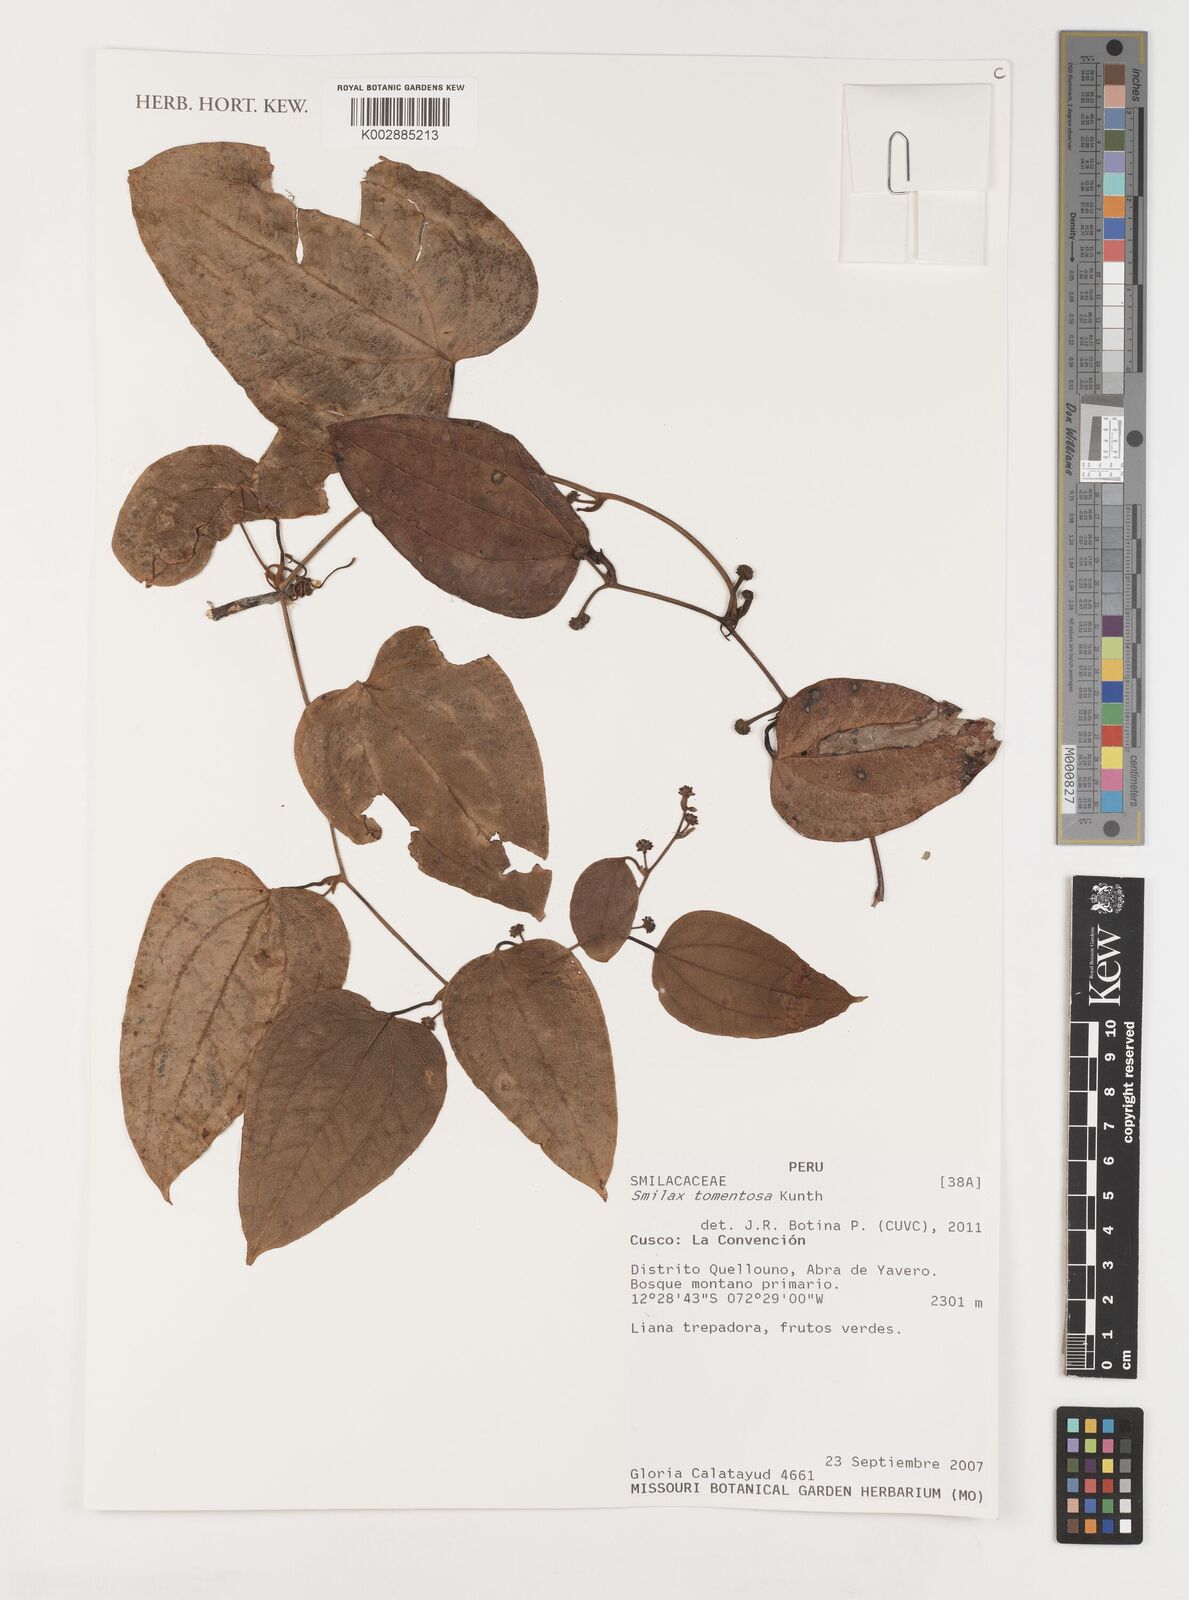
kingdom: Plantae
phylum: Tracheophyta
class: Liliopsida
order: Liliales
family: Smilacaceae
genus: Smilax
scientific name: Smilax tomentosa
